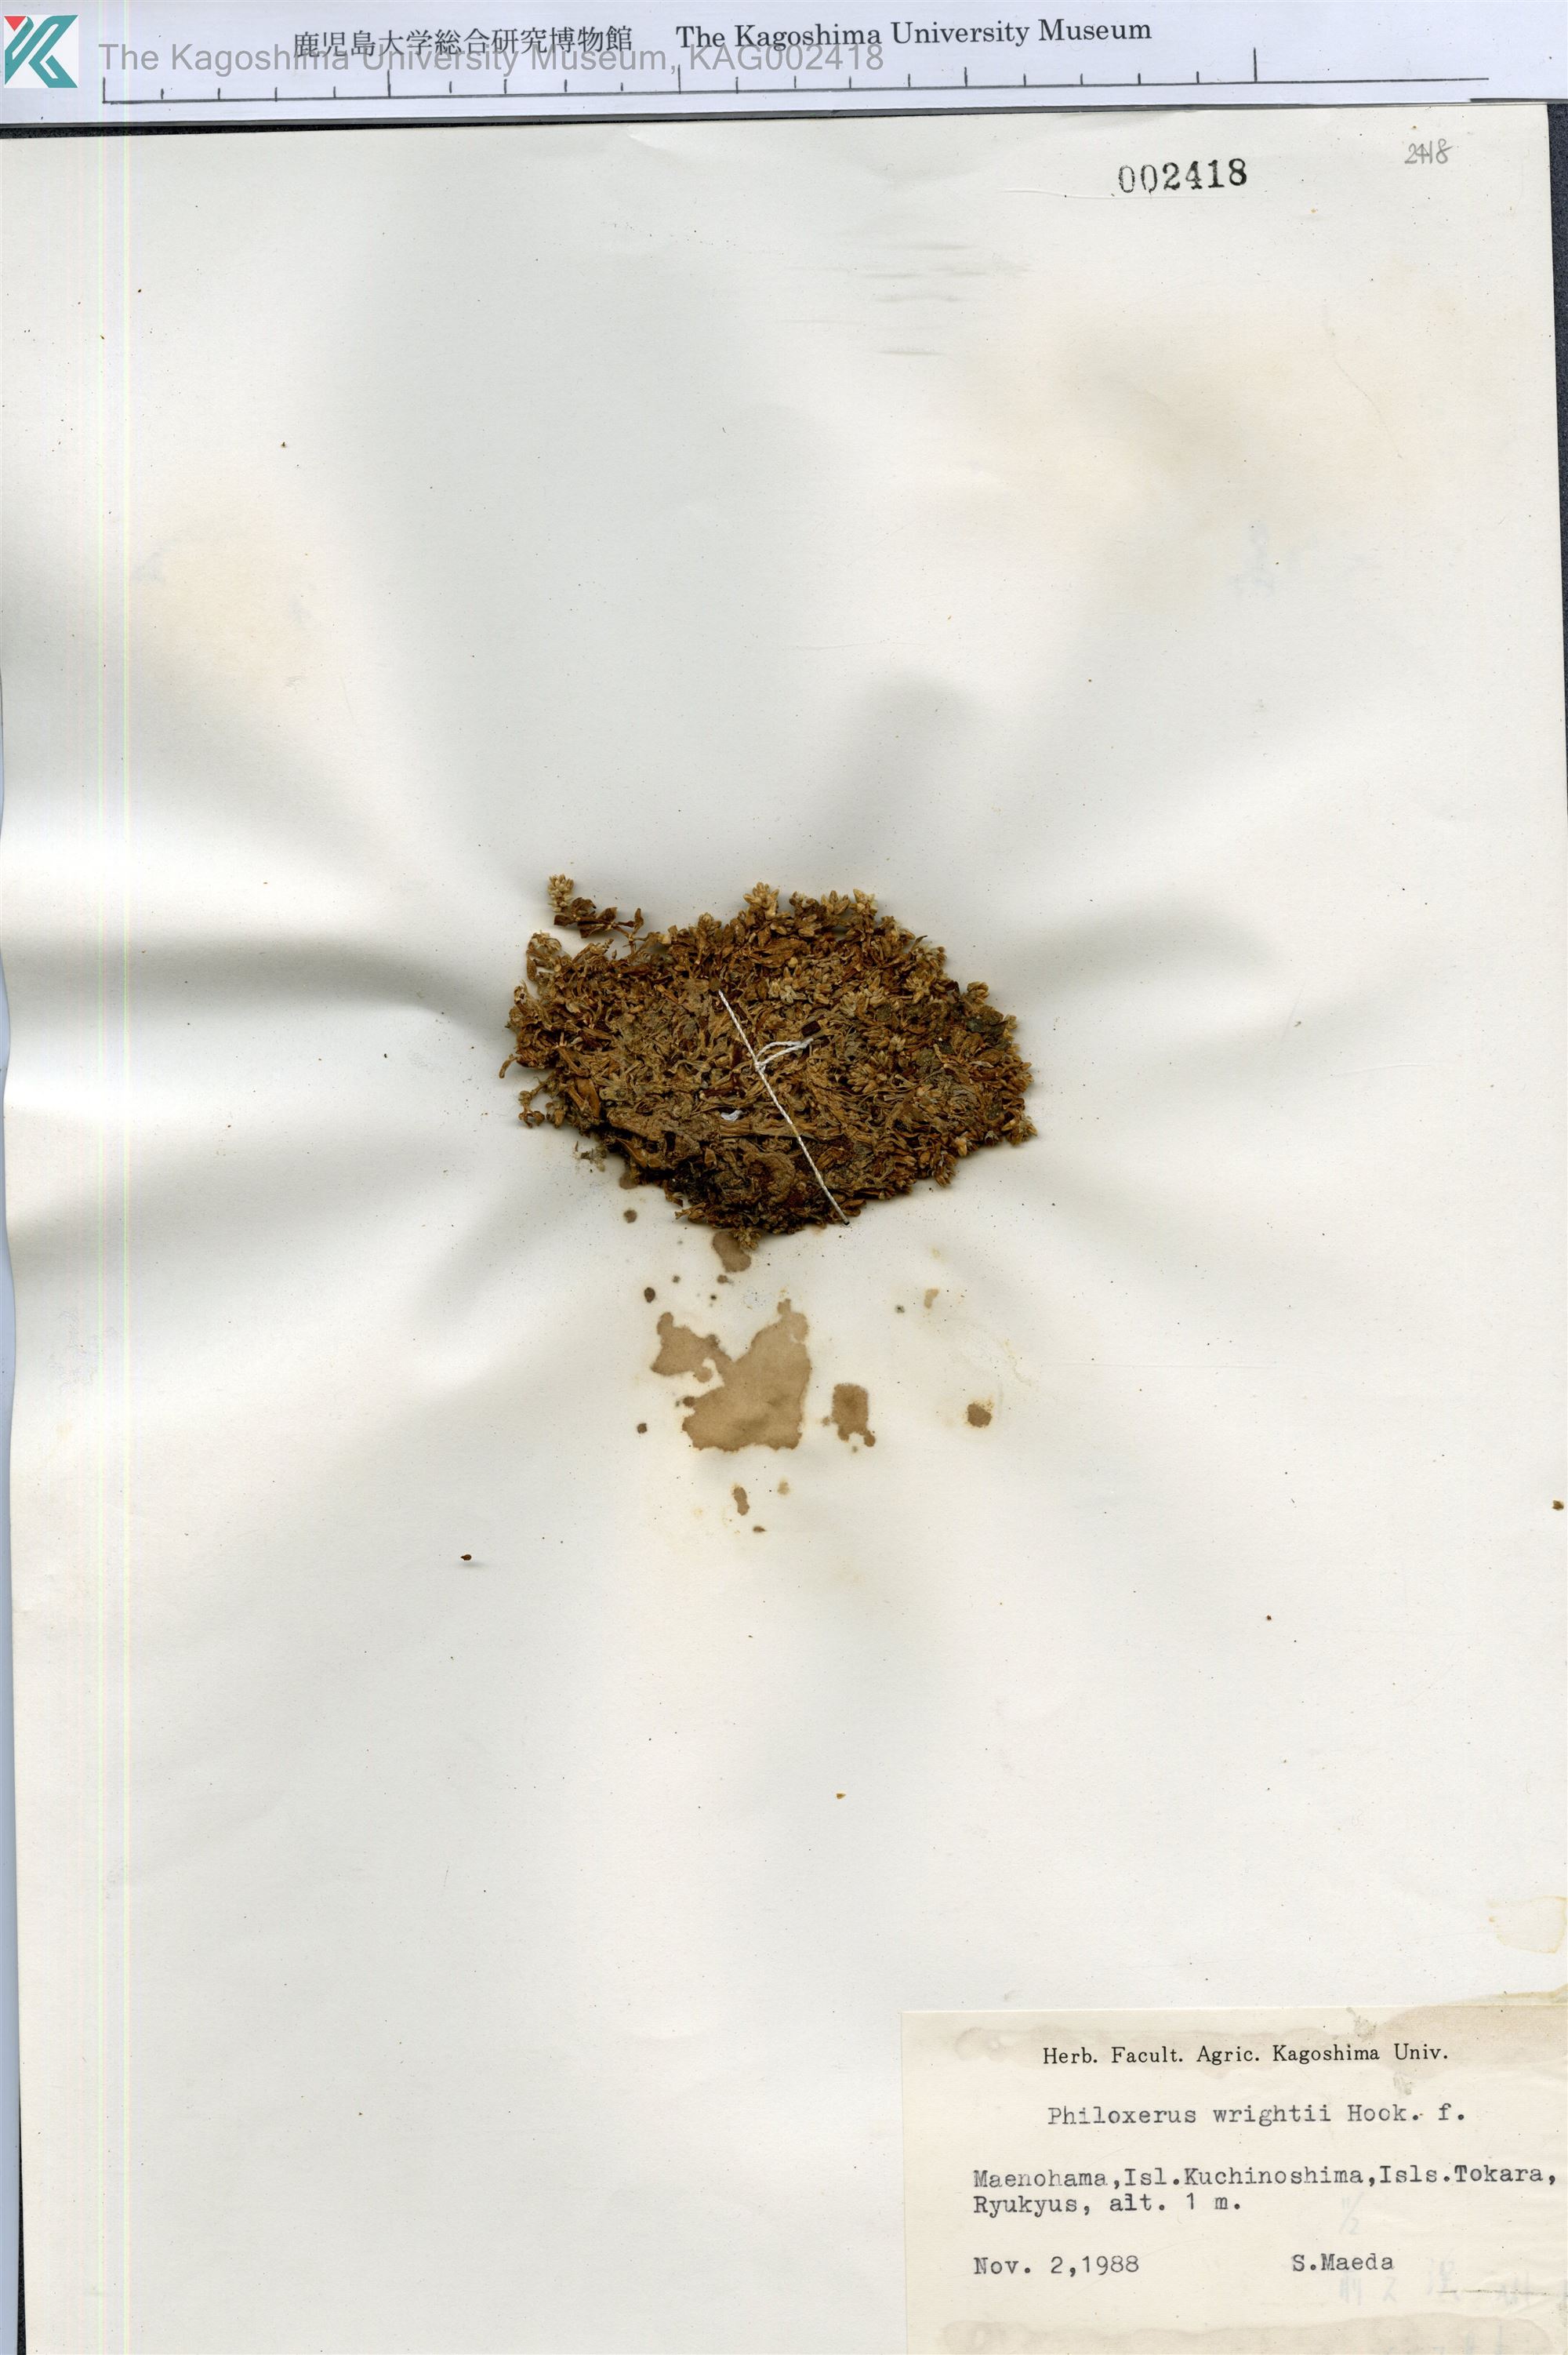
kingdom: Plantae
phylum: Tracheophyta
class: Magnoliopsida
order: Caryophyllales
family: Amaranthaceae
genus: Gomphrena
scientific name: Gomphrena wrightii
